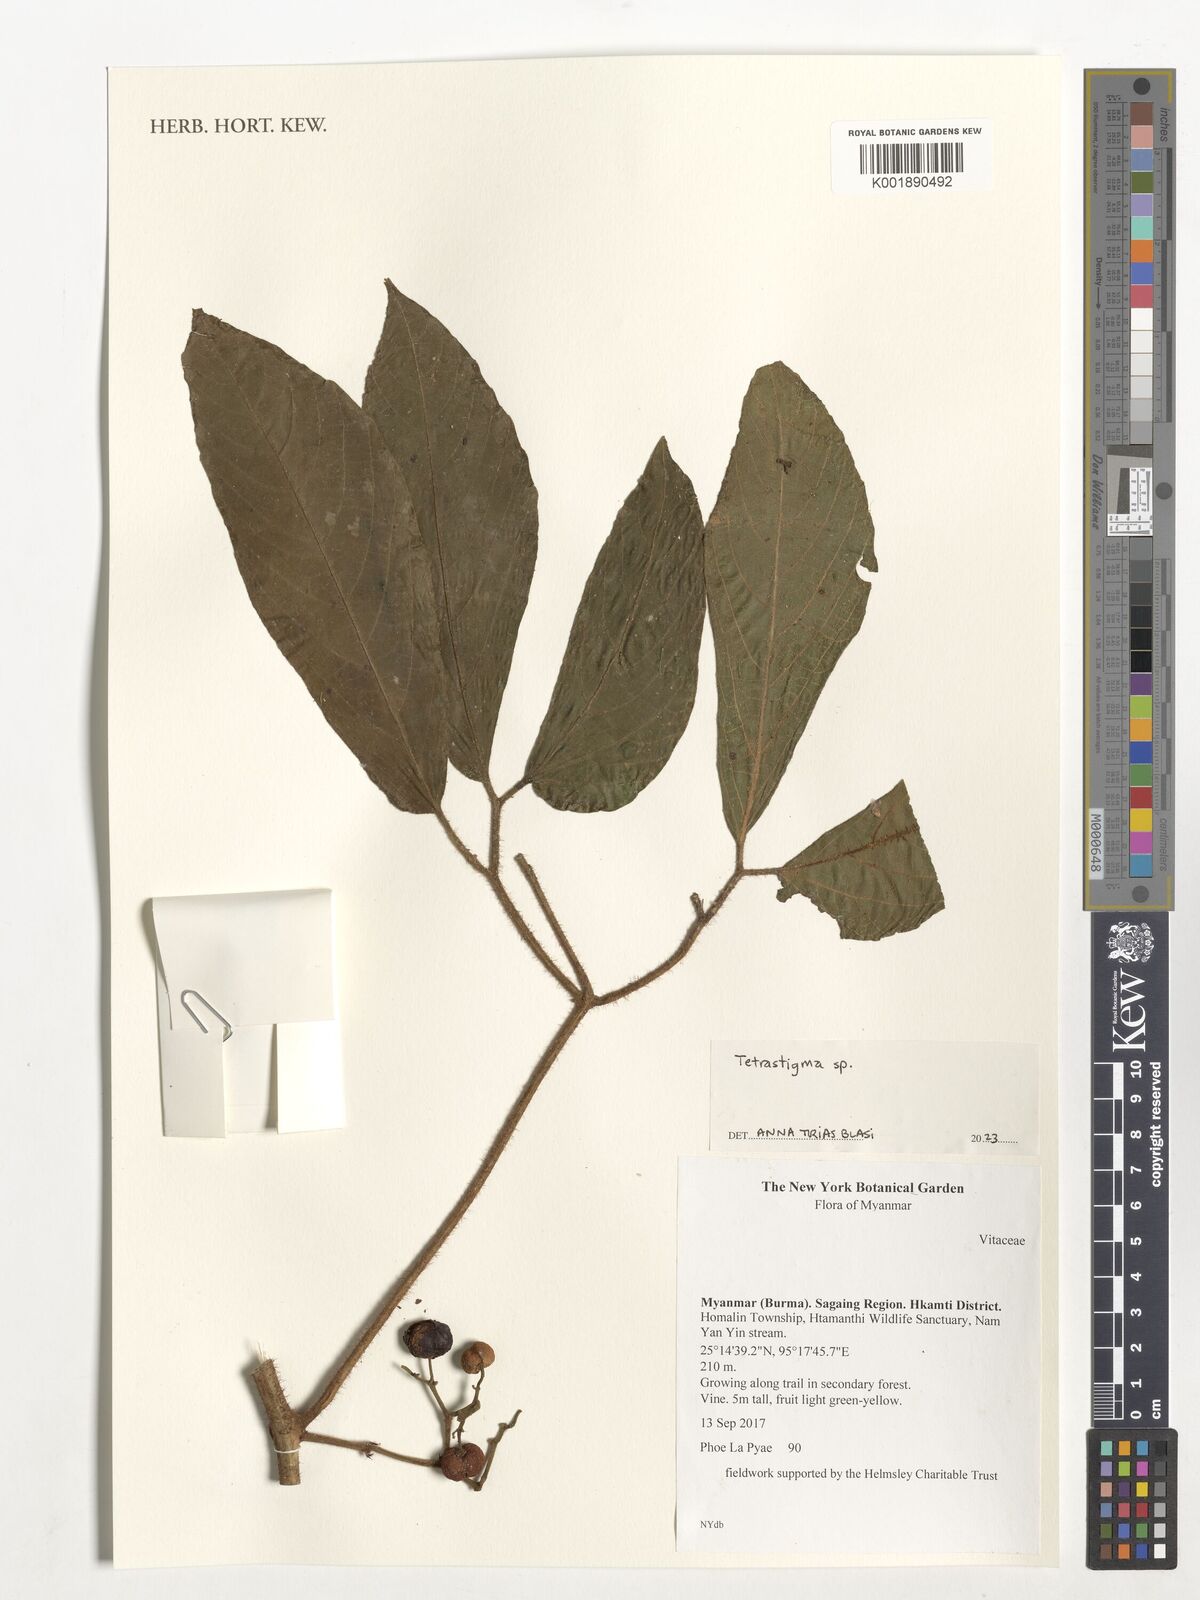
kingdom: Plantae
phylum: Tracheophyta
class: Magnoliopsida
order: Vitales
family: Vitaceae
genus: Tetrastigma
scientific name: Tetrastigma
